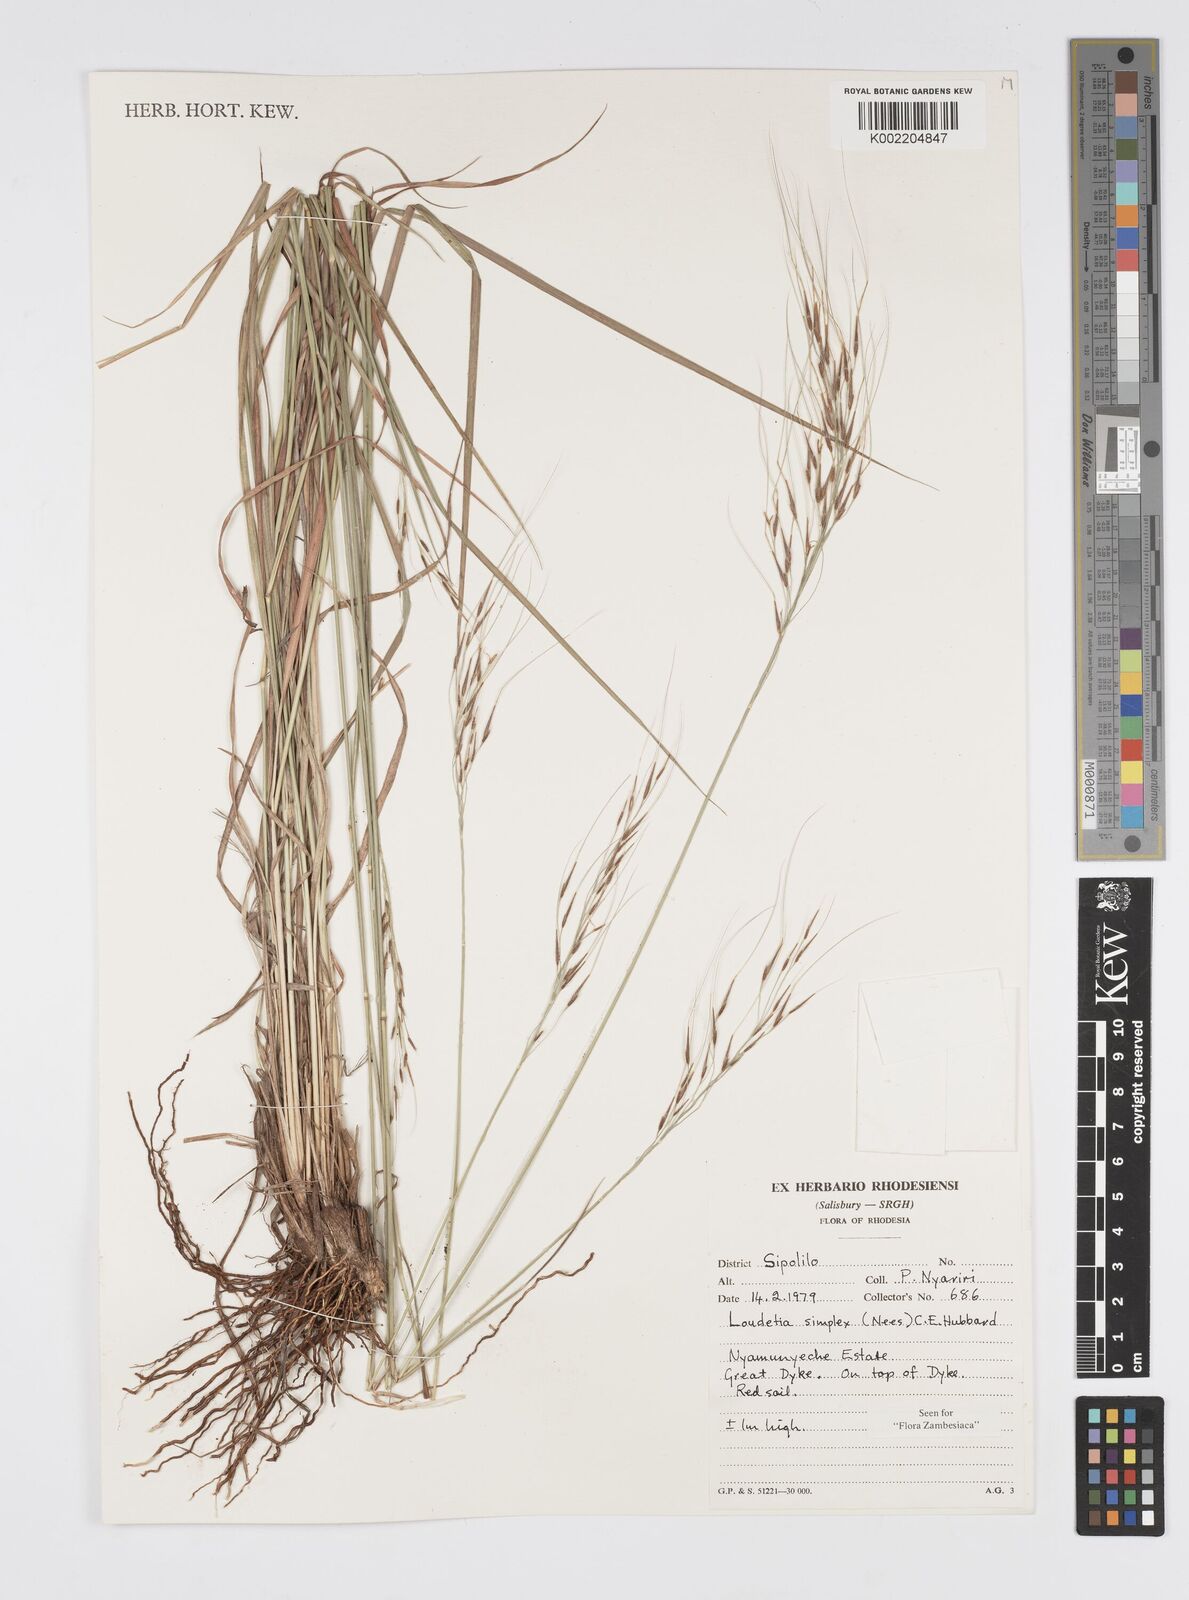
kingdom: Plantae
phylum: Tracheophyta
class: Liliopsida
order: Poales
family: Poaceae
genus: Loudetia
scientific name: Loudetia simplex
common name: Common russet grass
